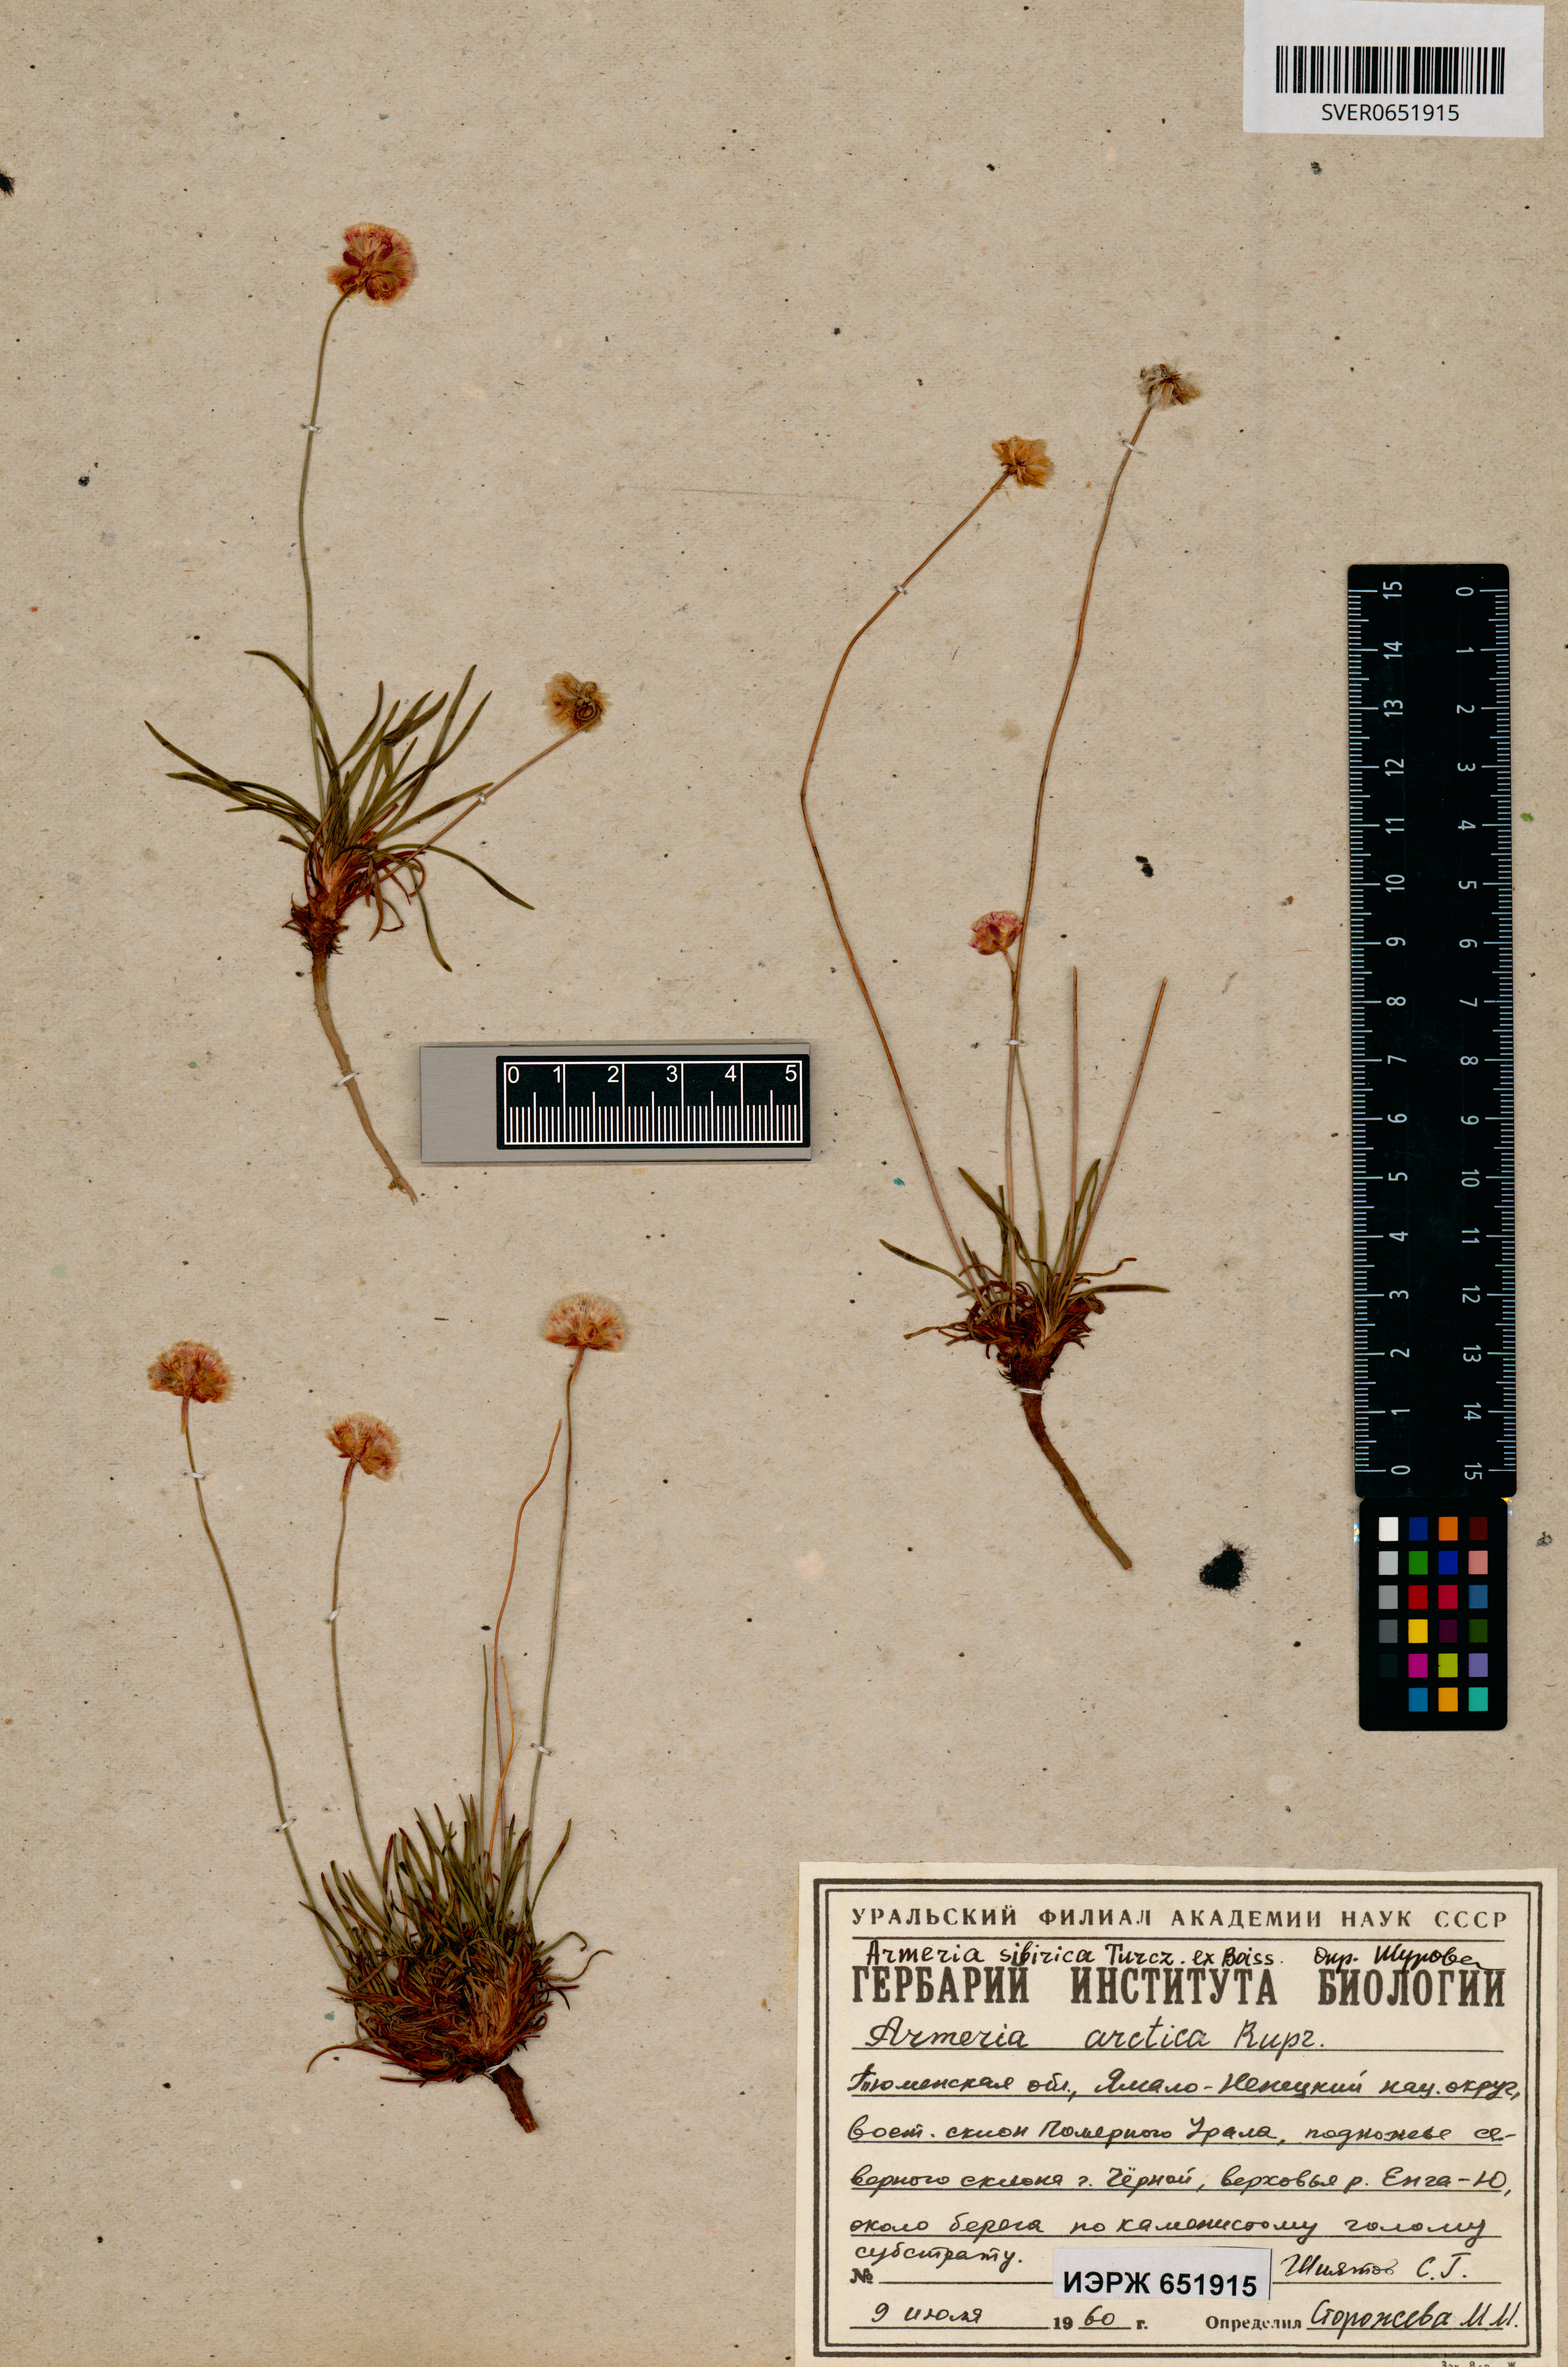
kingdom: Plantae
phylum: Tracheophyta
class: Magnoliopsida
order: Caryophyllales
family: Plumbaginaceae
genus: Armeria
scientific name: Armeria maritima
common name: Thrift
